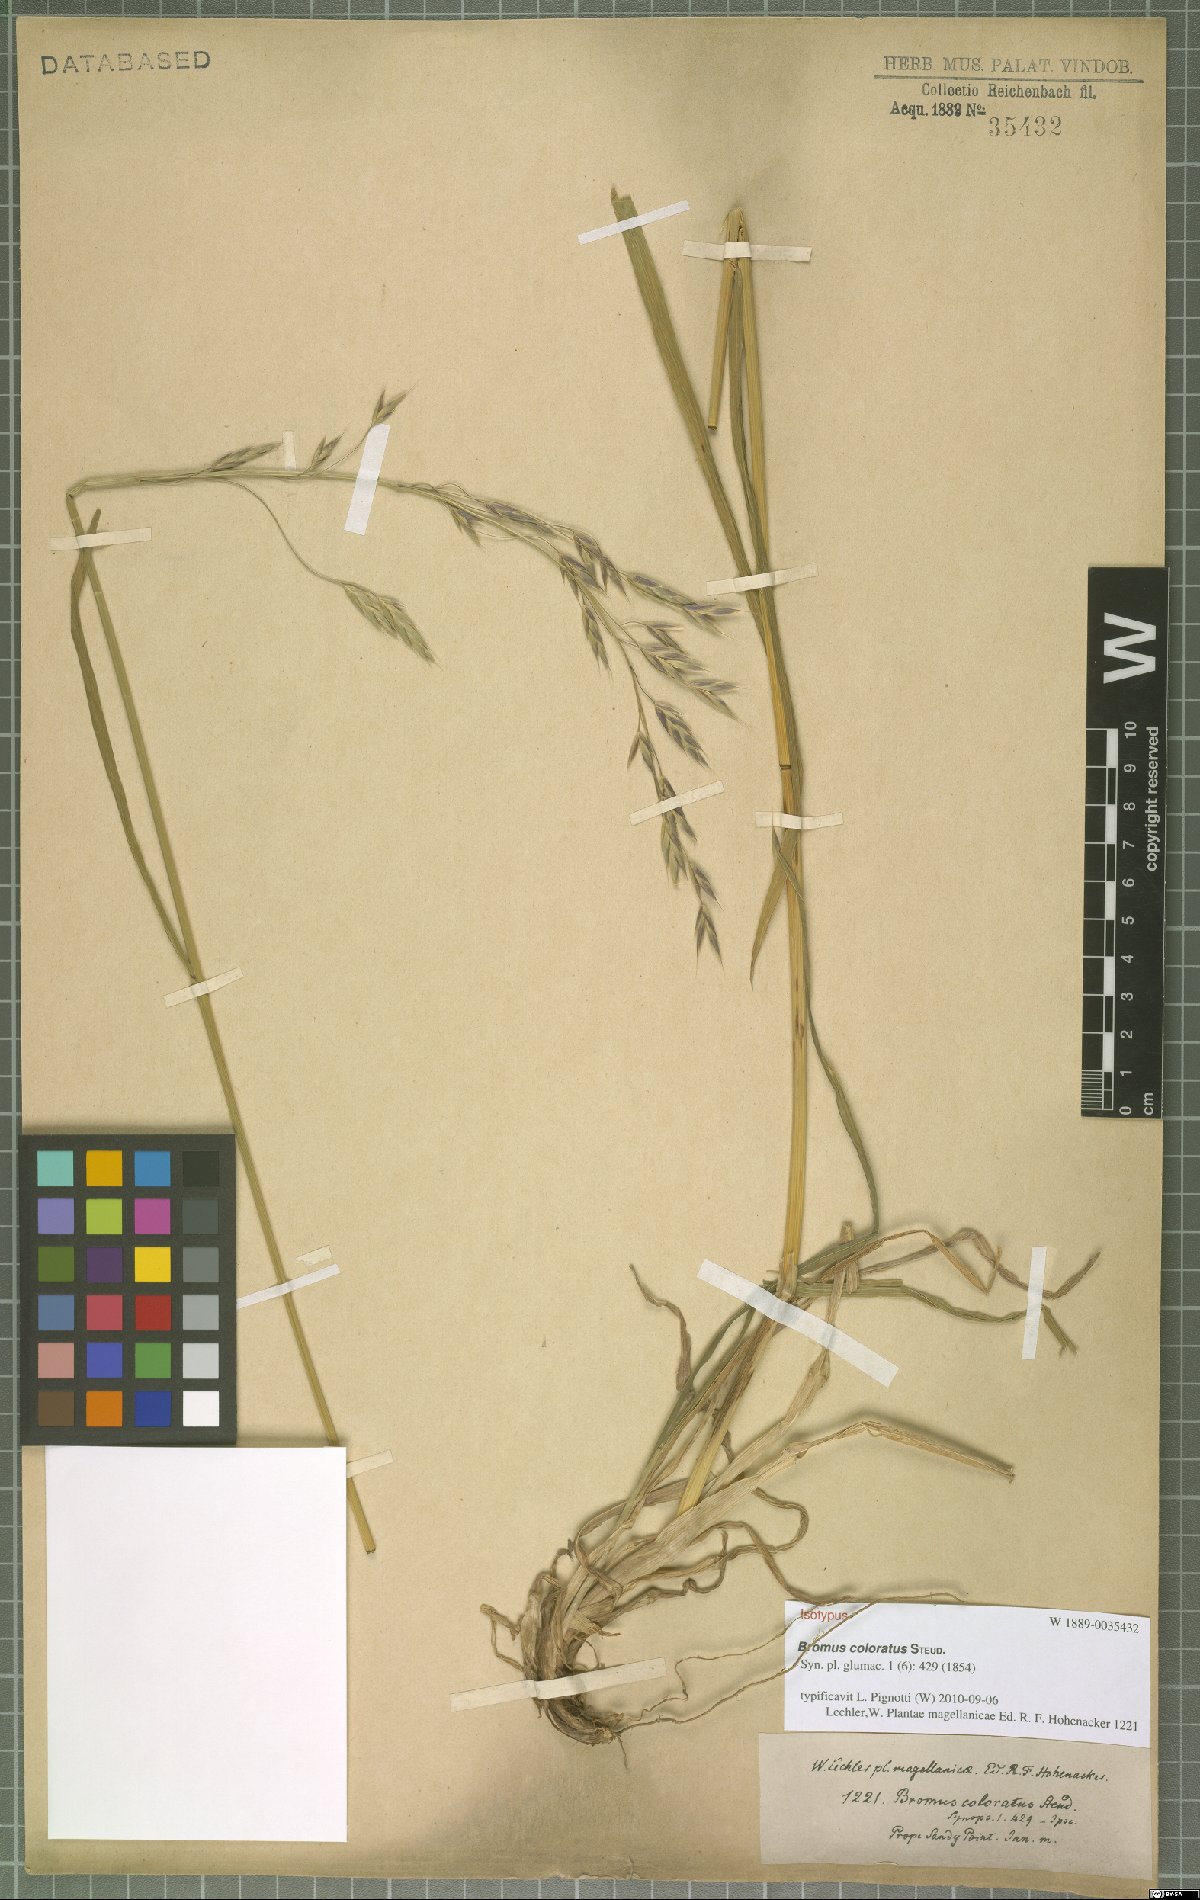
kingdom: Plantae
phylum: Tracheophyta
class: Liliopsida
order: Poales
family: Poaceae
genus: Bromus
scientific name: Bromus coloratus
